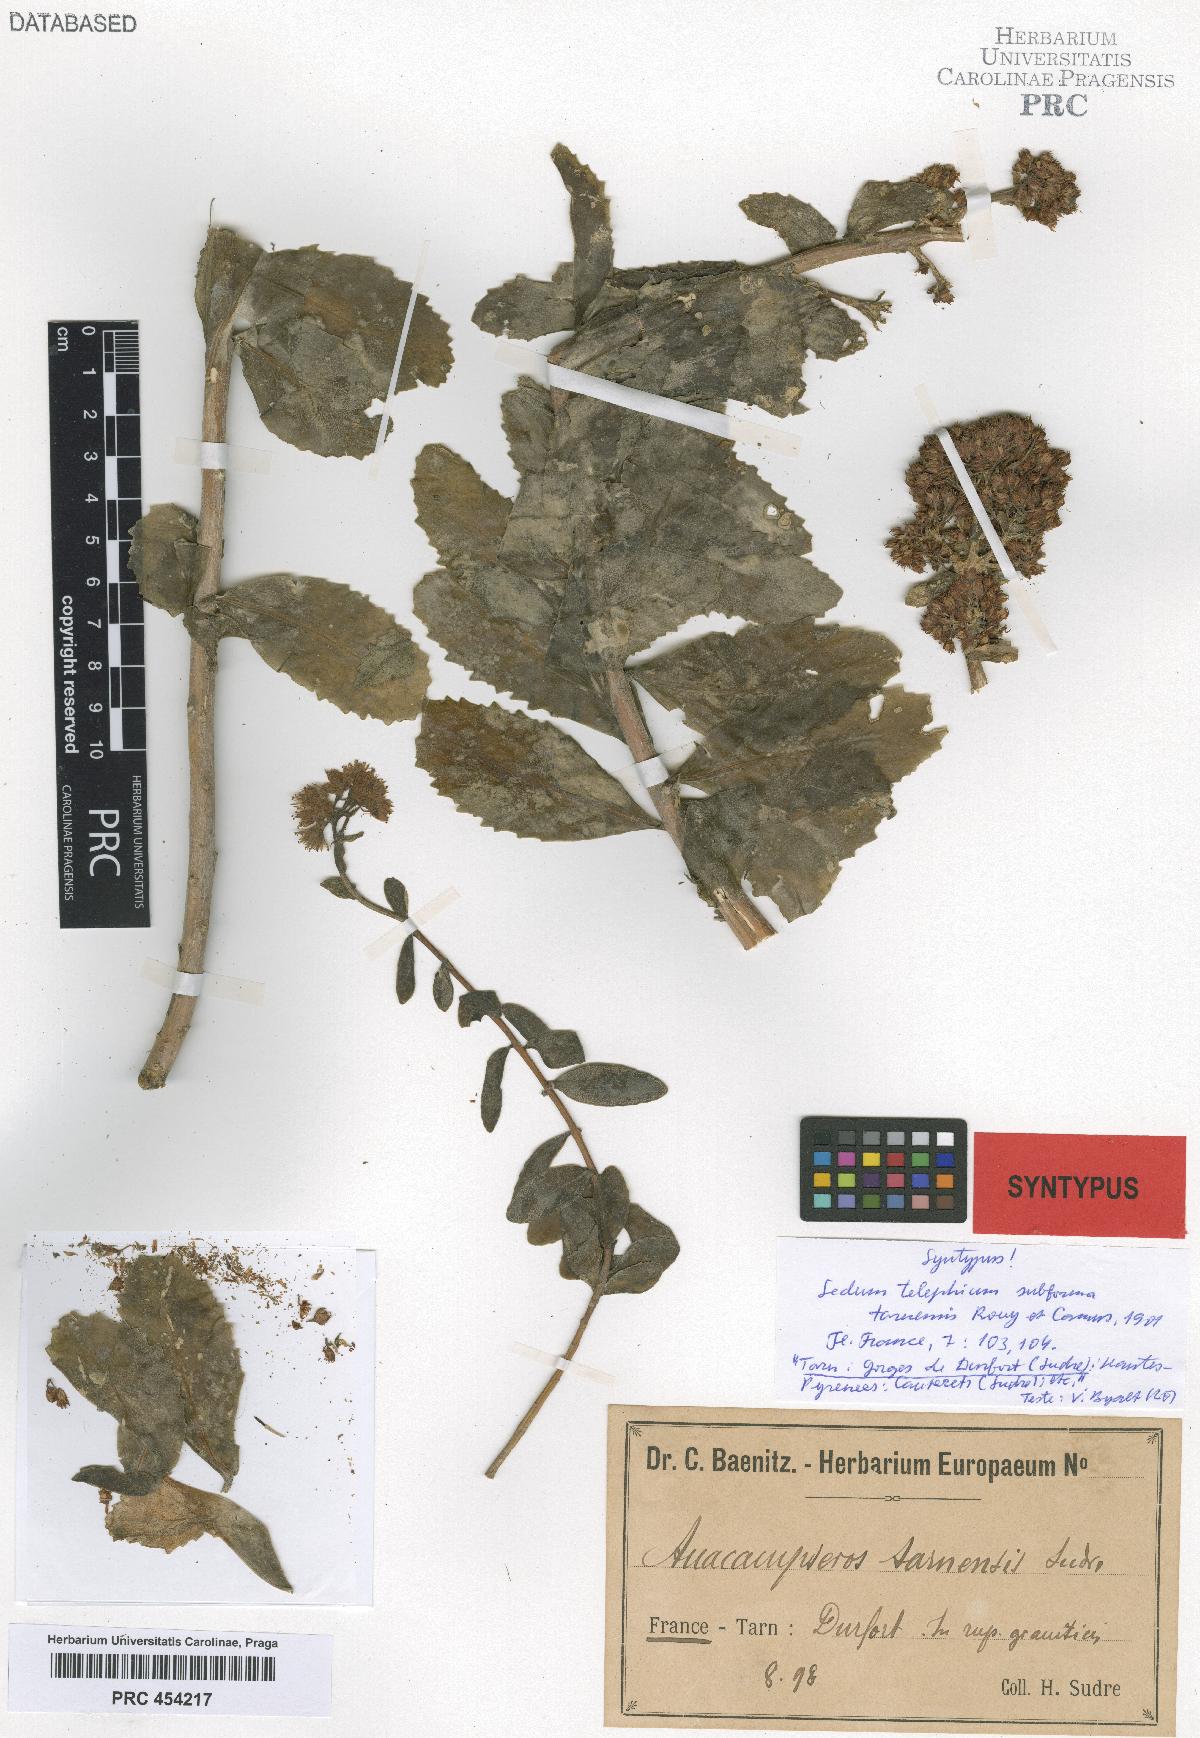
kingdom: Plantae
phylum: Tracheophyta
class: Magnoliopsida
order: Saxifragales
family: Crassulaceae
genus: Hylotelephium
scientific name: Hylotelephium telephium
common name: Live-forever
